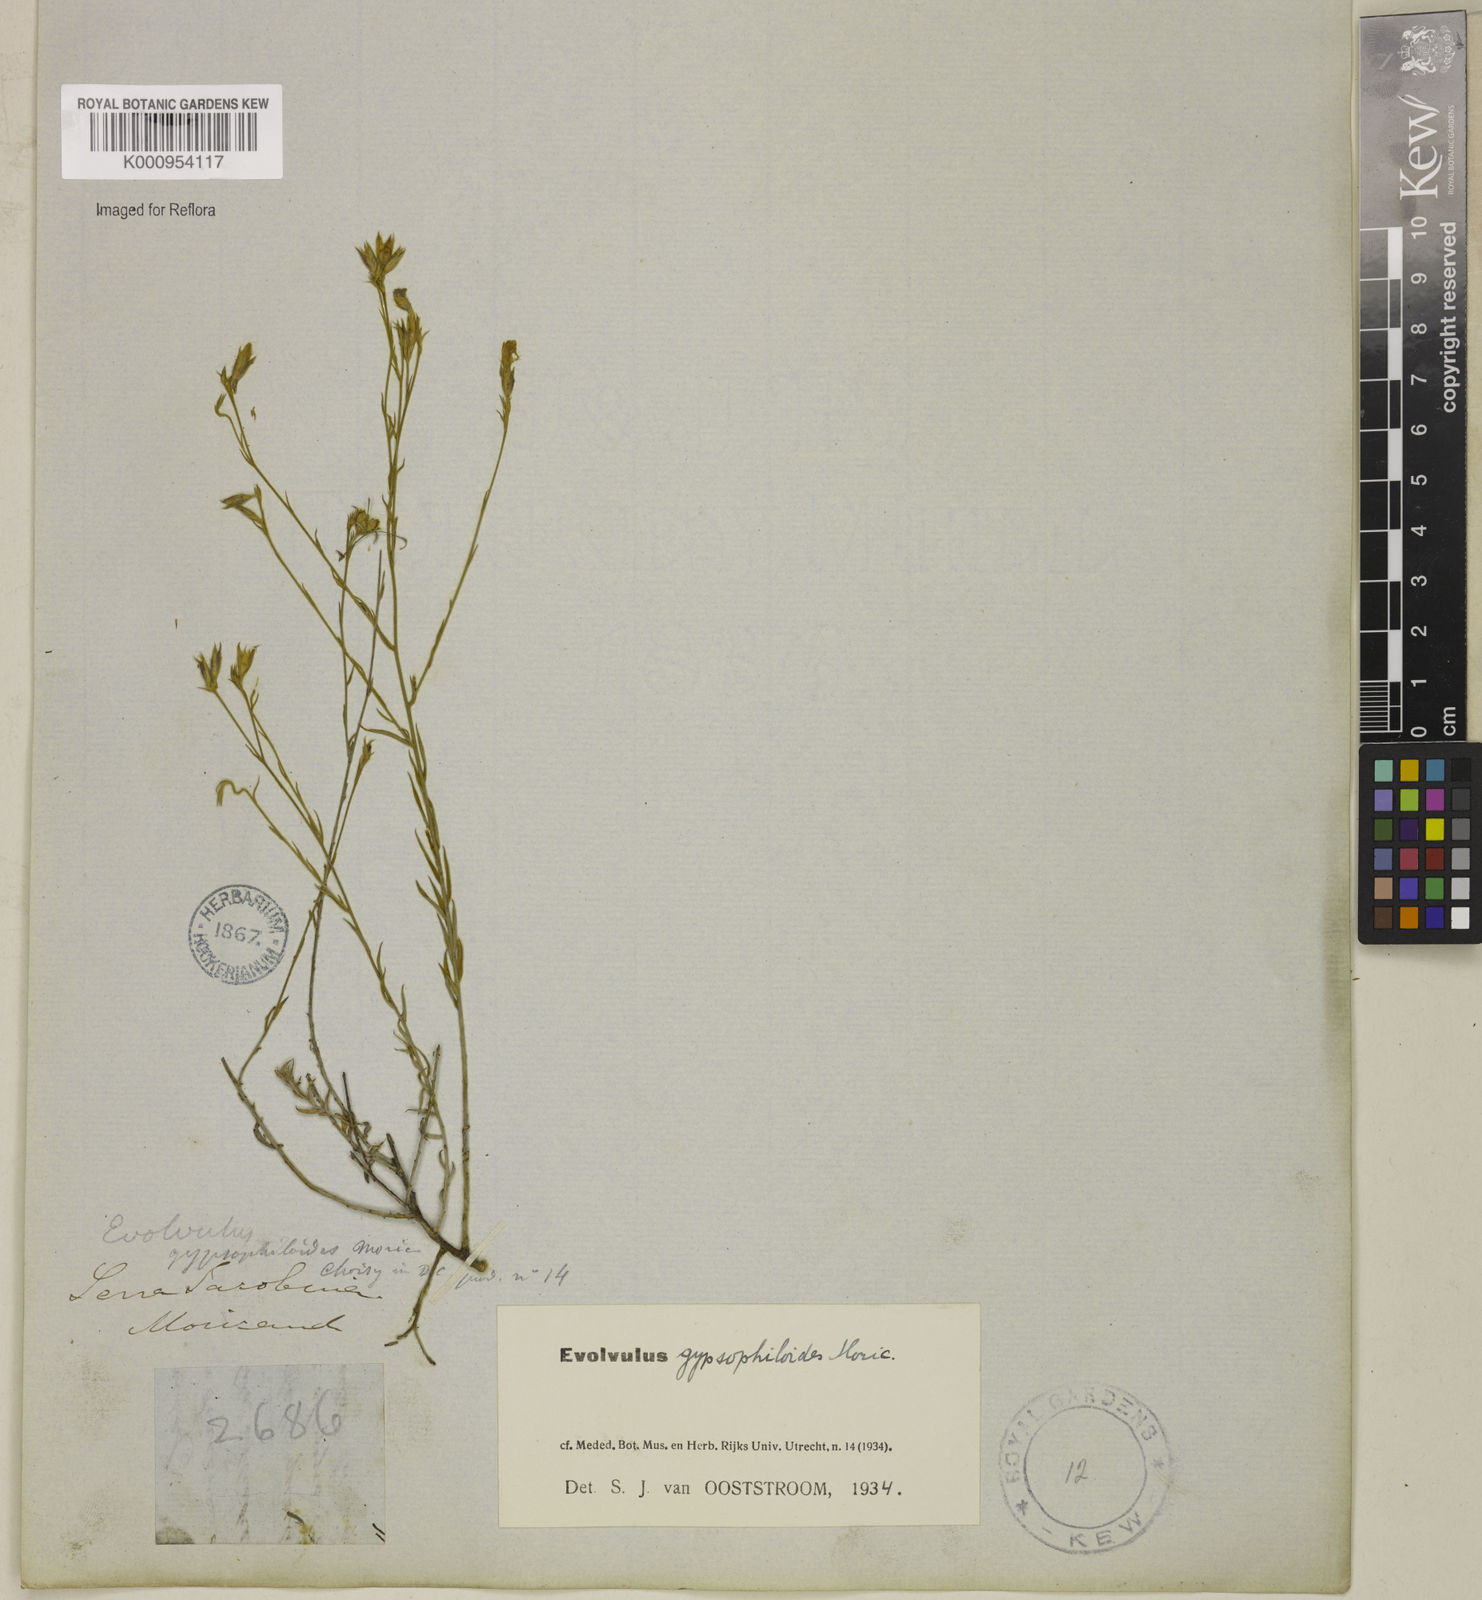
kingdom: Plantae
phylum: Tracheophyta
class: Magnoliopsida
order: Solanales
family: Convolvulaceae
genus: Evolvulus
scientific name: Evolvulus gypsophiloides
